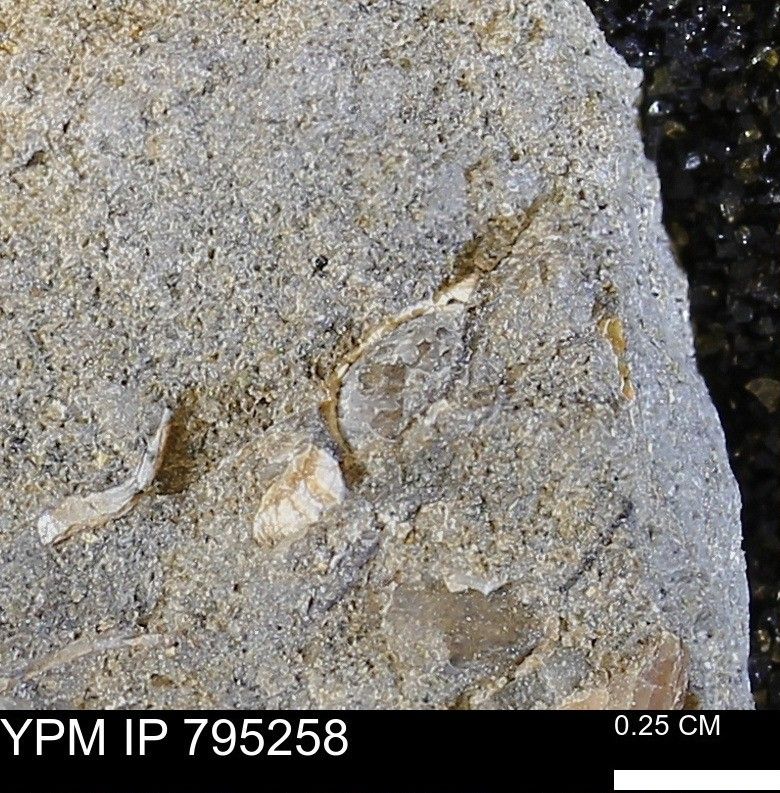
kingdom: Animalia
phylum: Mollusca
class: Bivalvia
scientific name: Bivalvia
